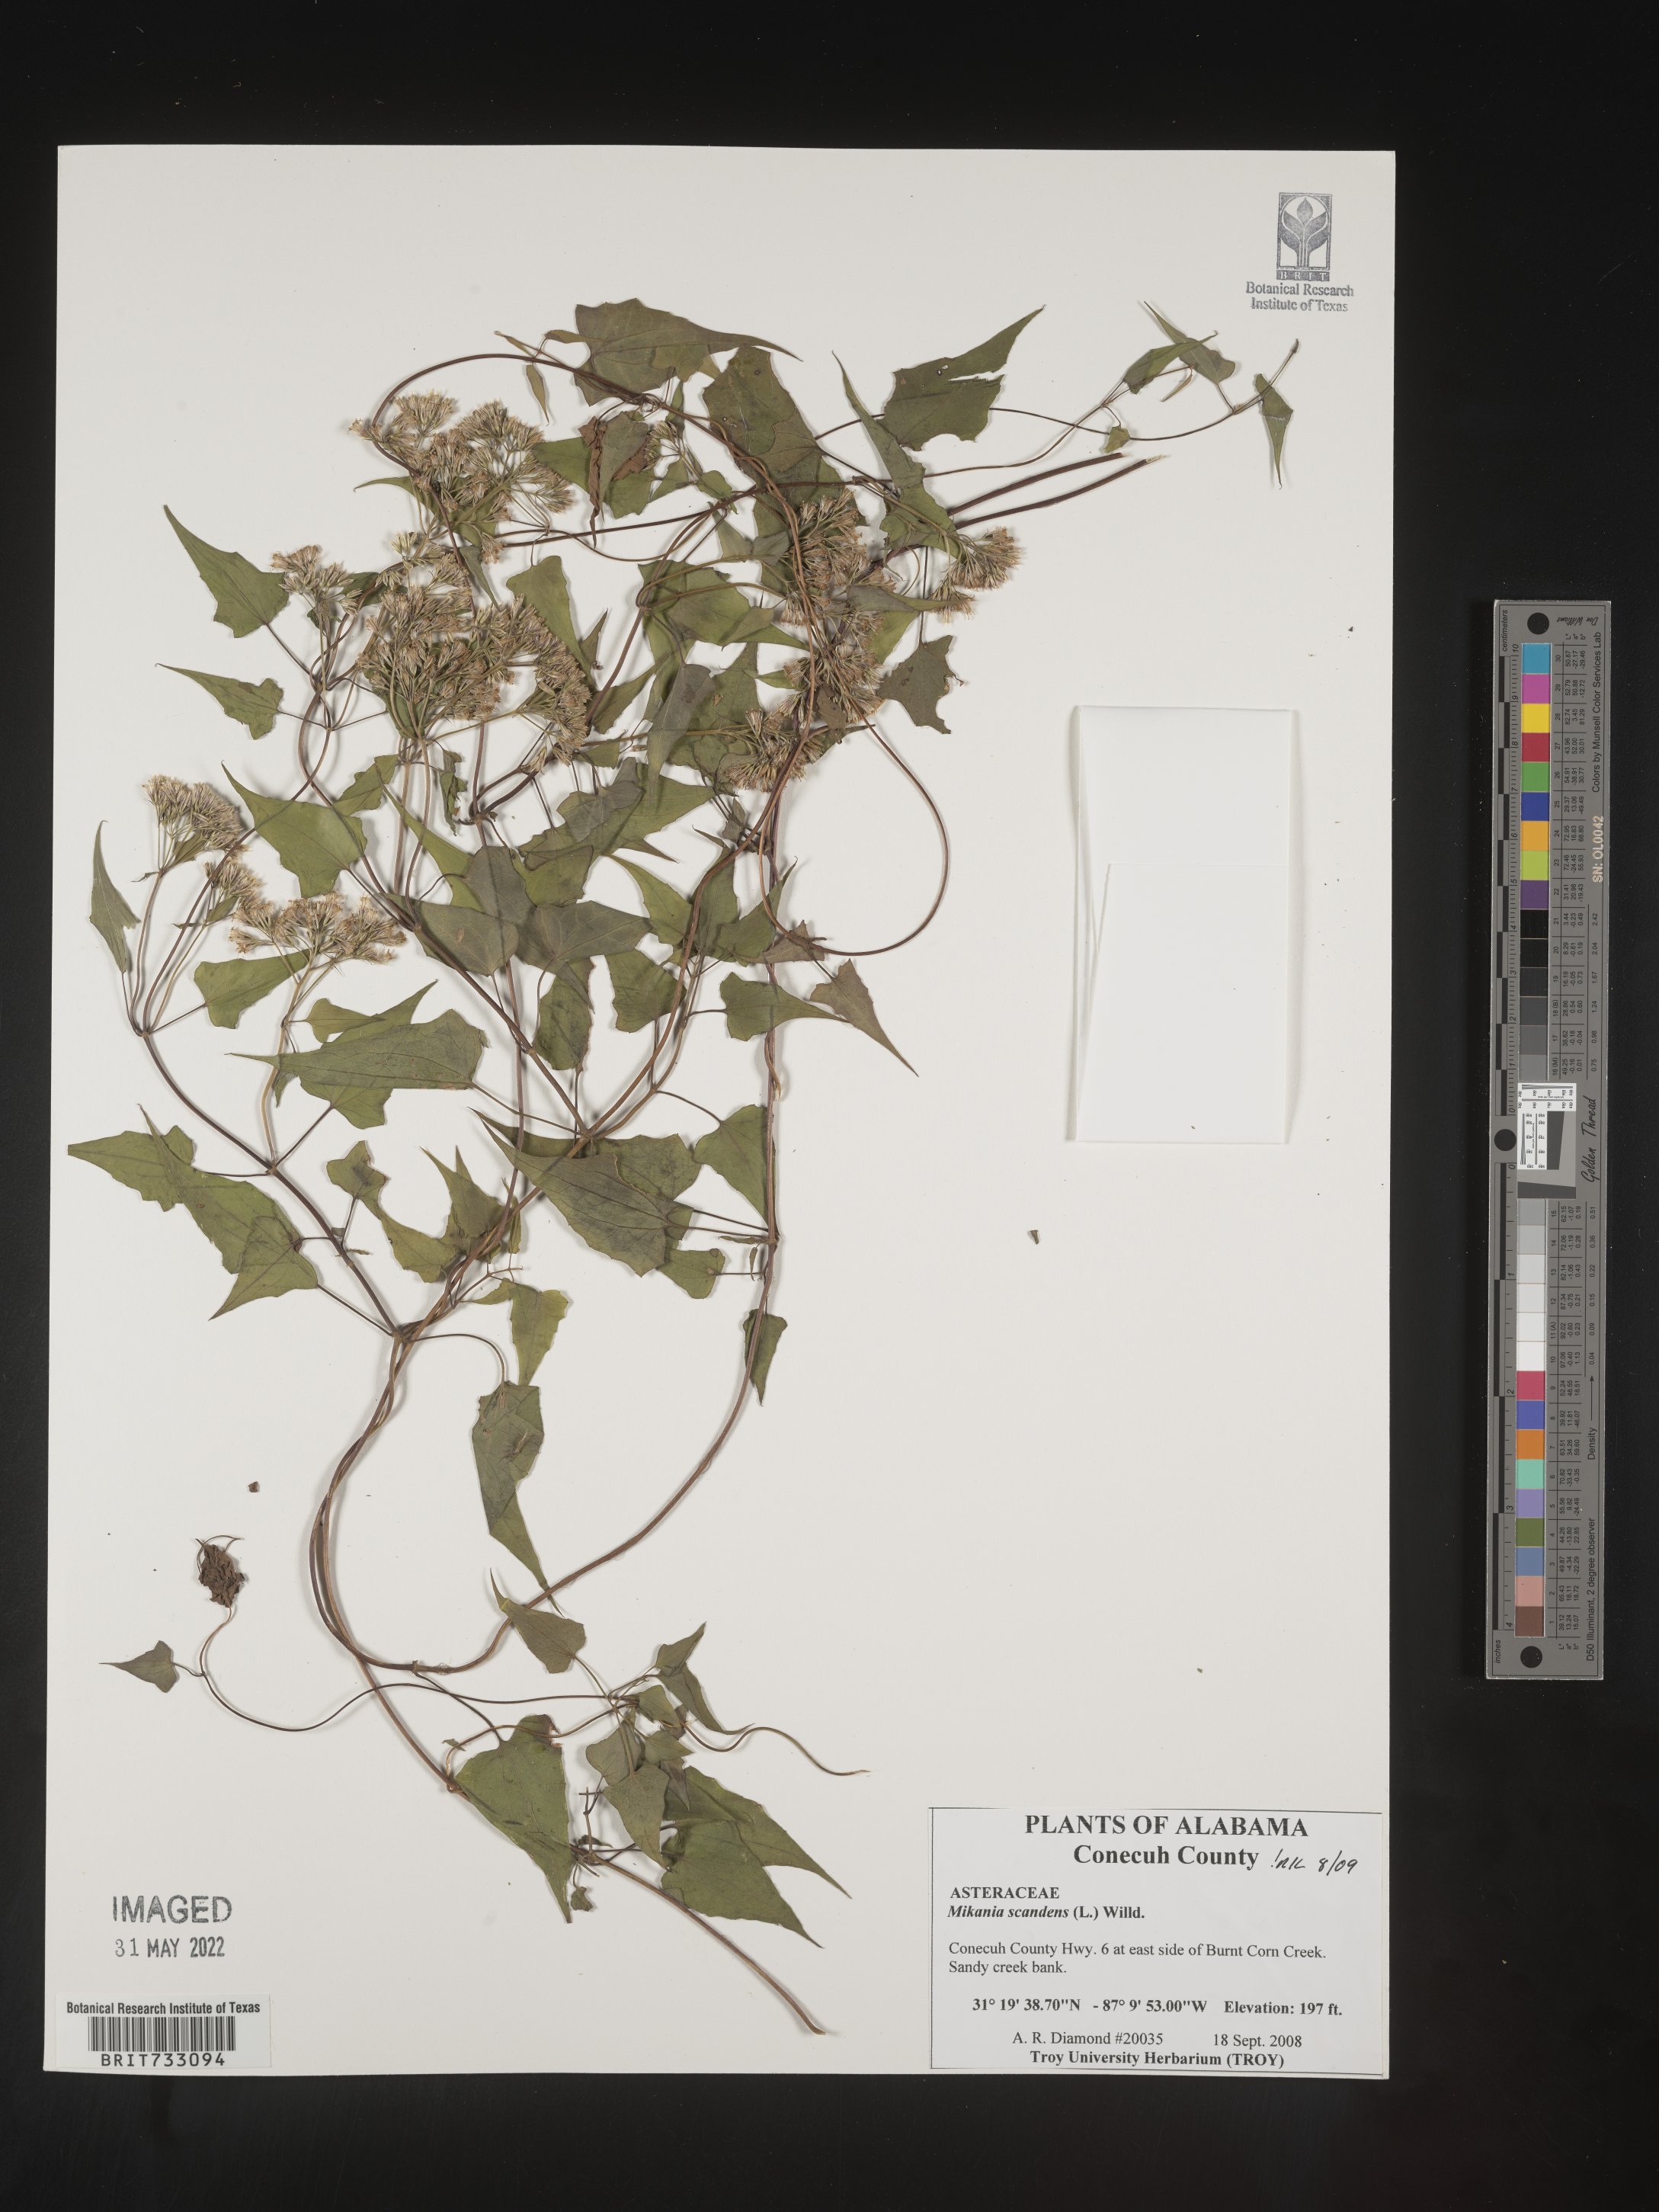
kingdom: Plantae
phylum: Tracheophyta
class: Magnoliopsida
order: Asterales
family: Asteraceae
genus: Mikania
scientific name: Mikania scandens
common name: Climbing hempvine
